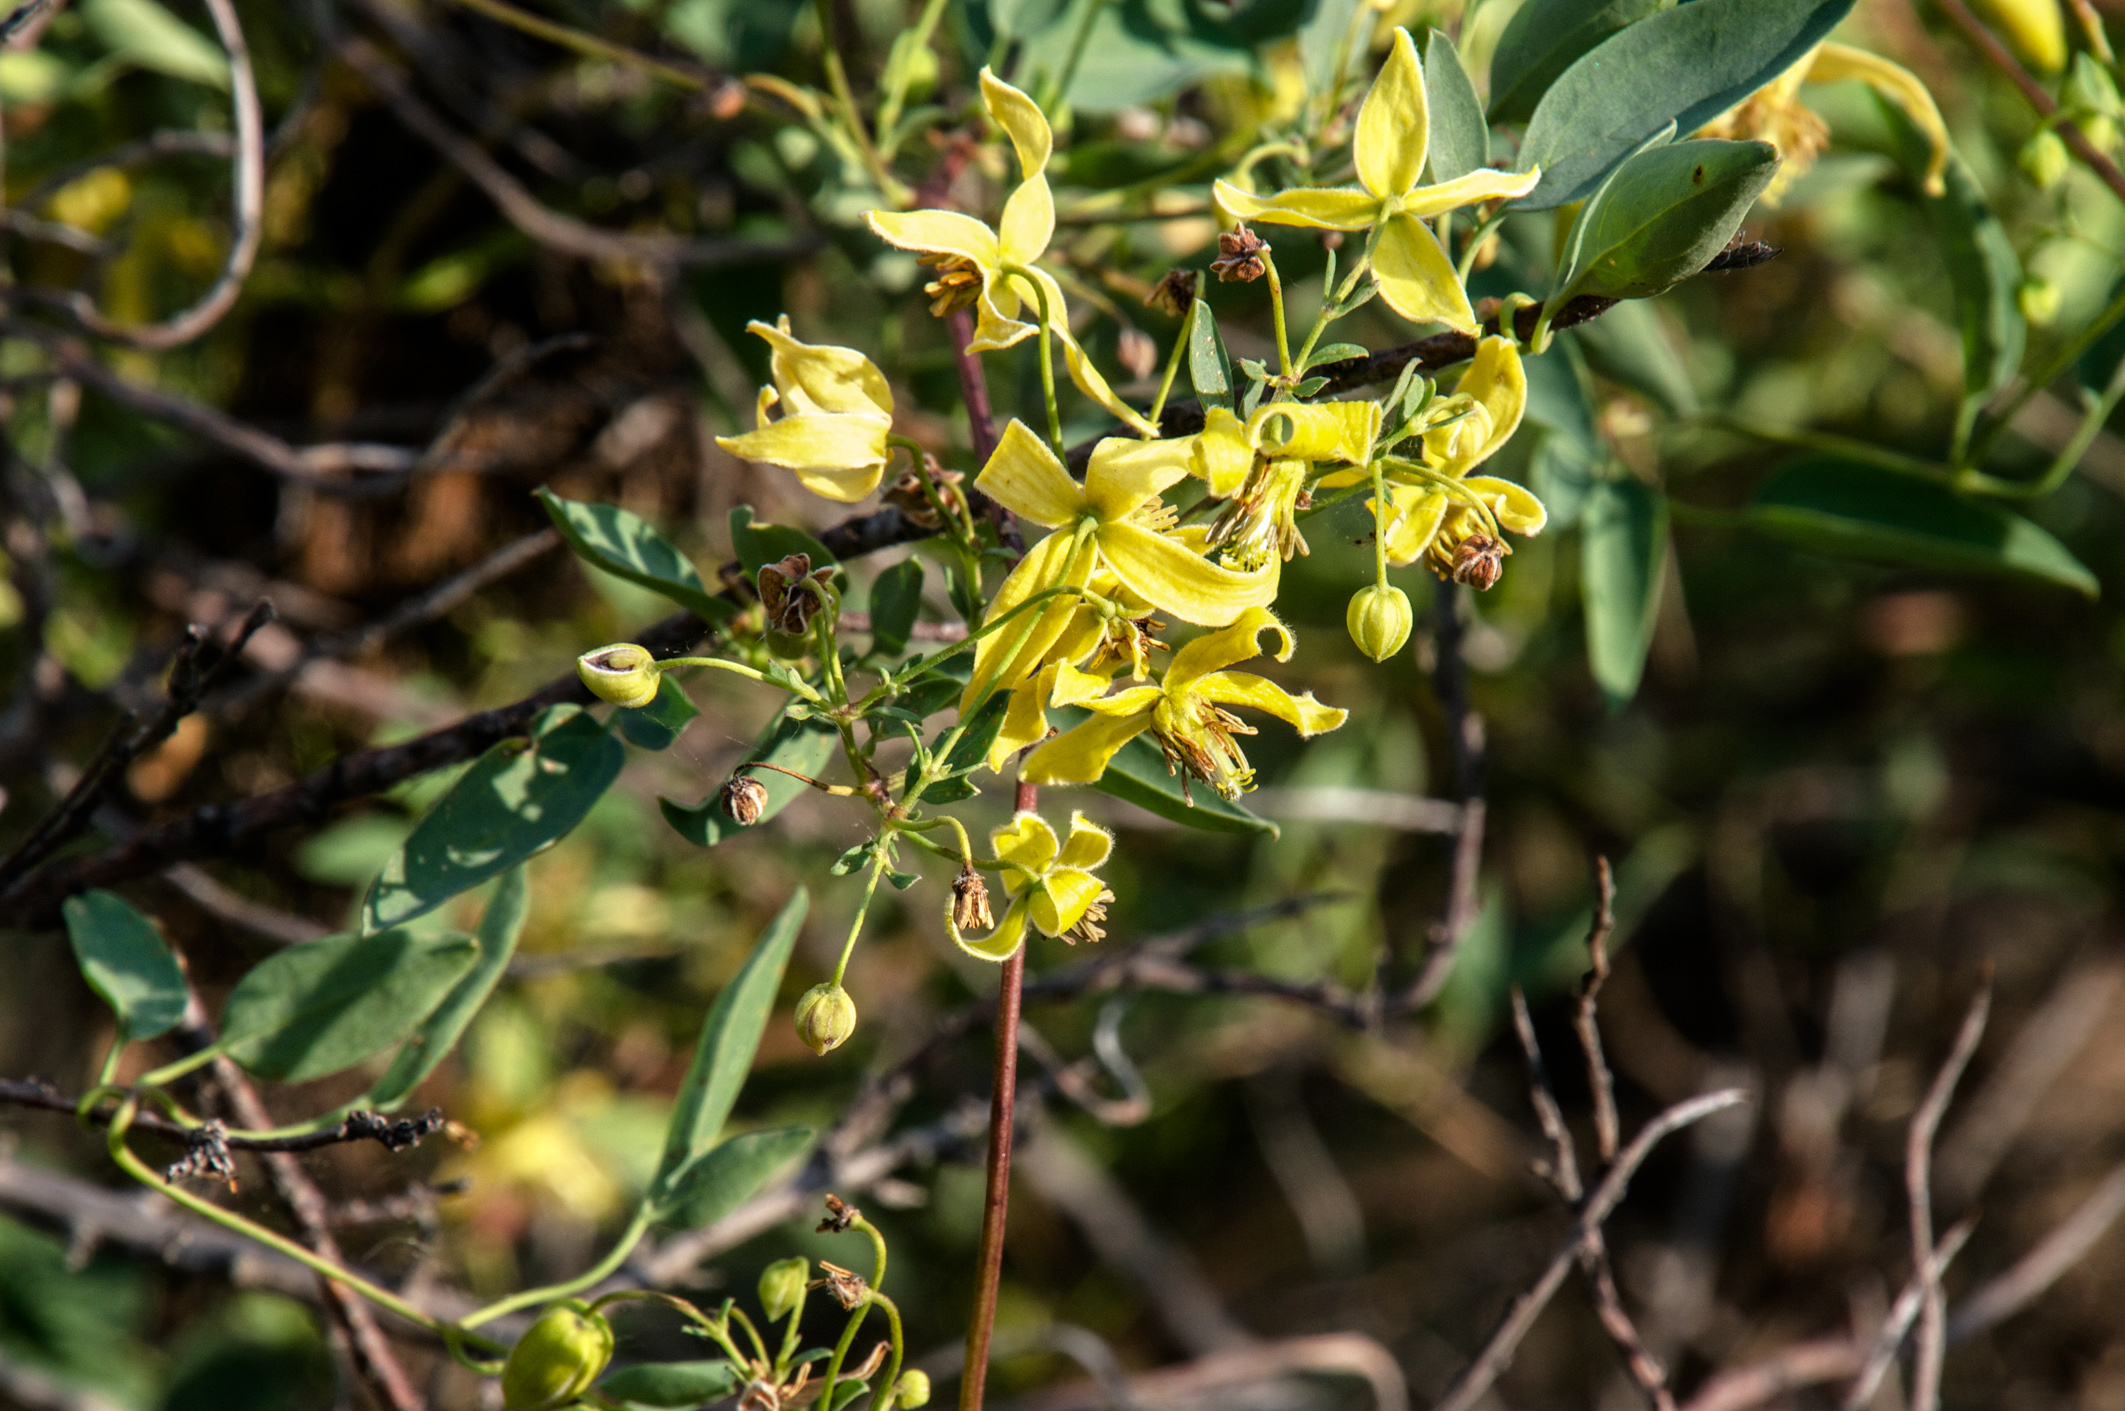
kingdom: Plantae
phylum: Tracheophyta
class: Magnoliopsida
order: Ranunculales
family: Ranunculaceae
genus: Clematis
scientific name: Clematis orientalis
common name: Oriental virgin's-bower
